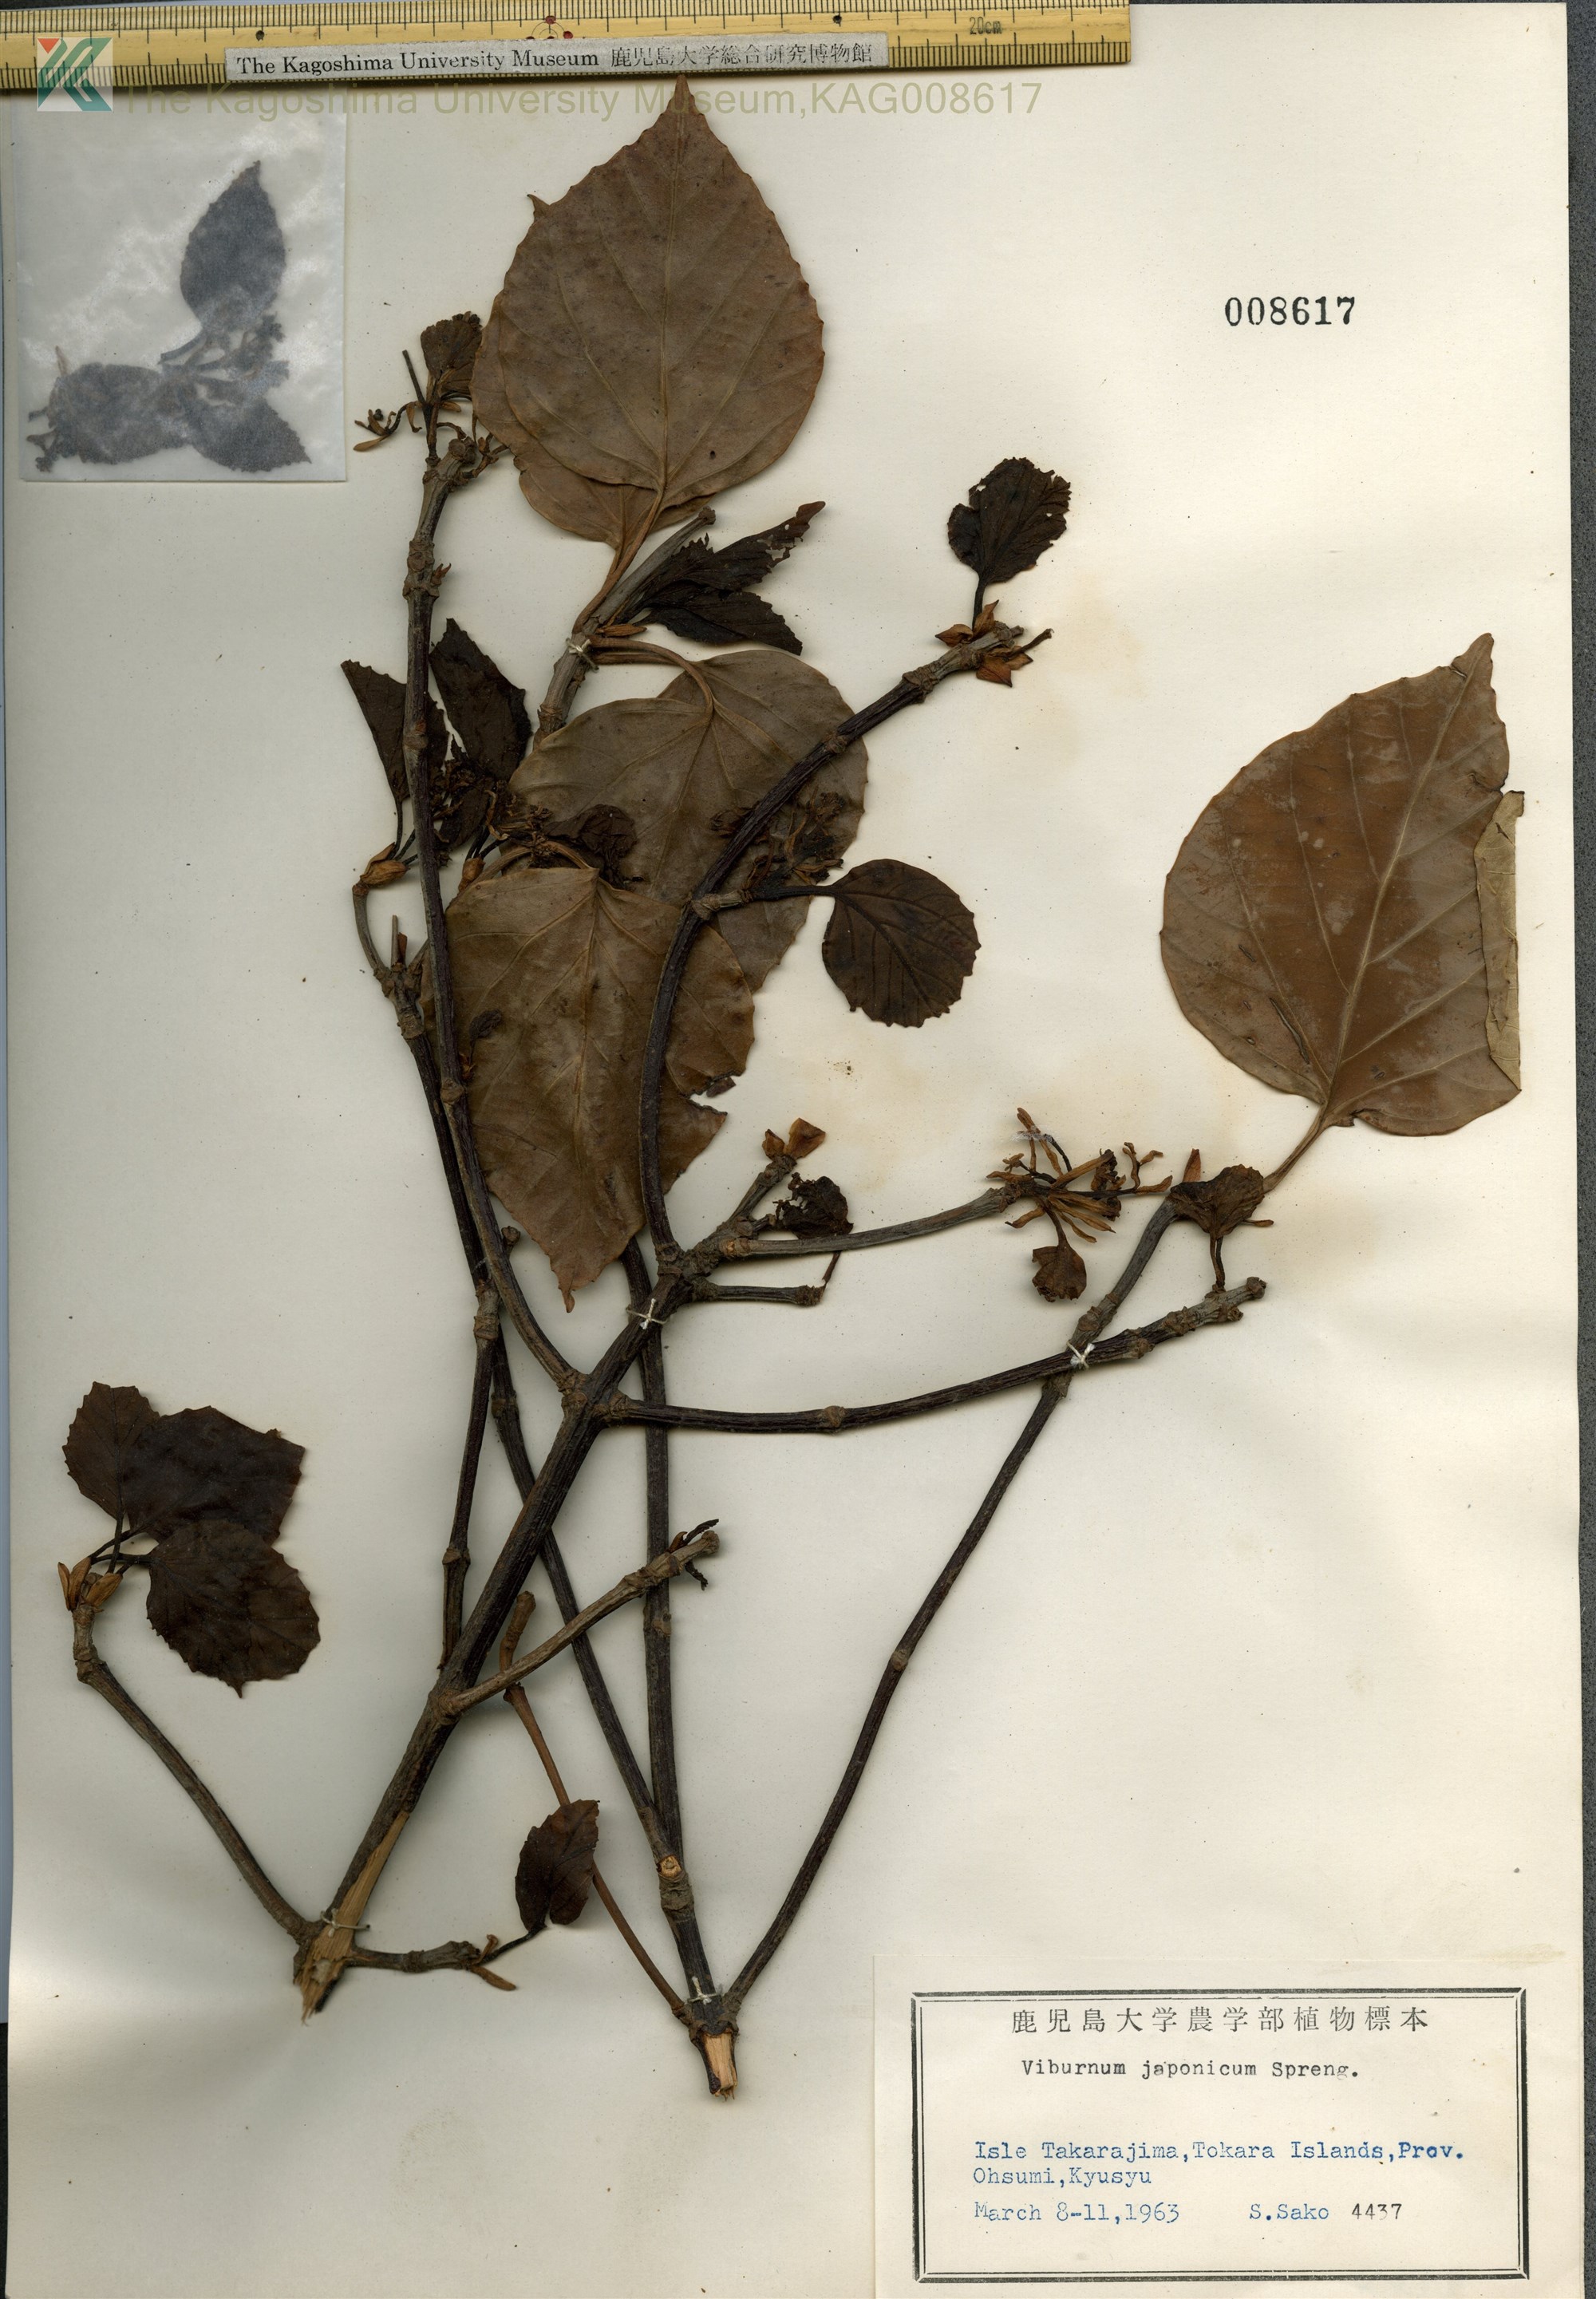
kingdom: Plantae
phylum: Tracheophyta
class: Magnoliopsida
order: Dipsacales
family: Viburnaceae
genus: Viburnum
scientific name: Viburnum japonicum
